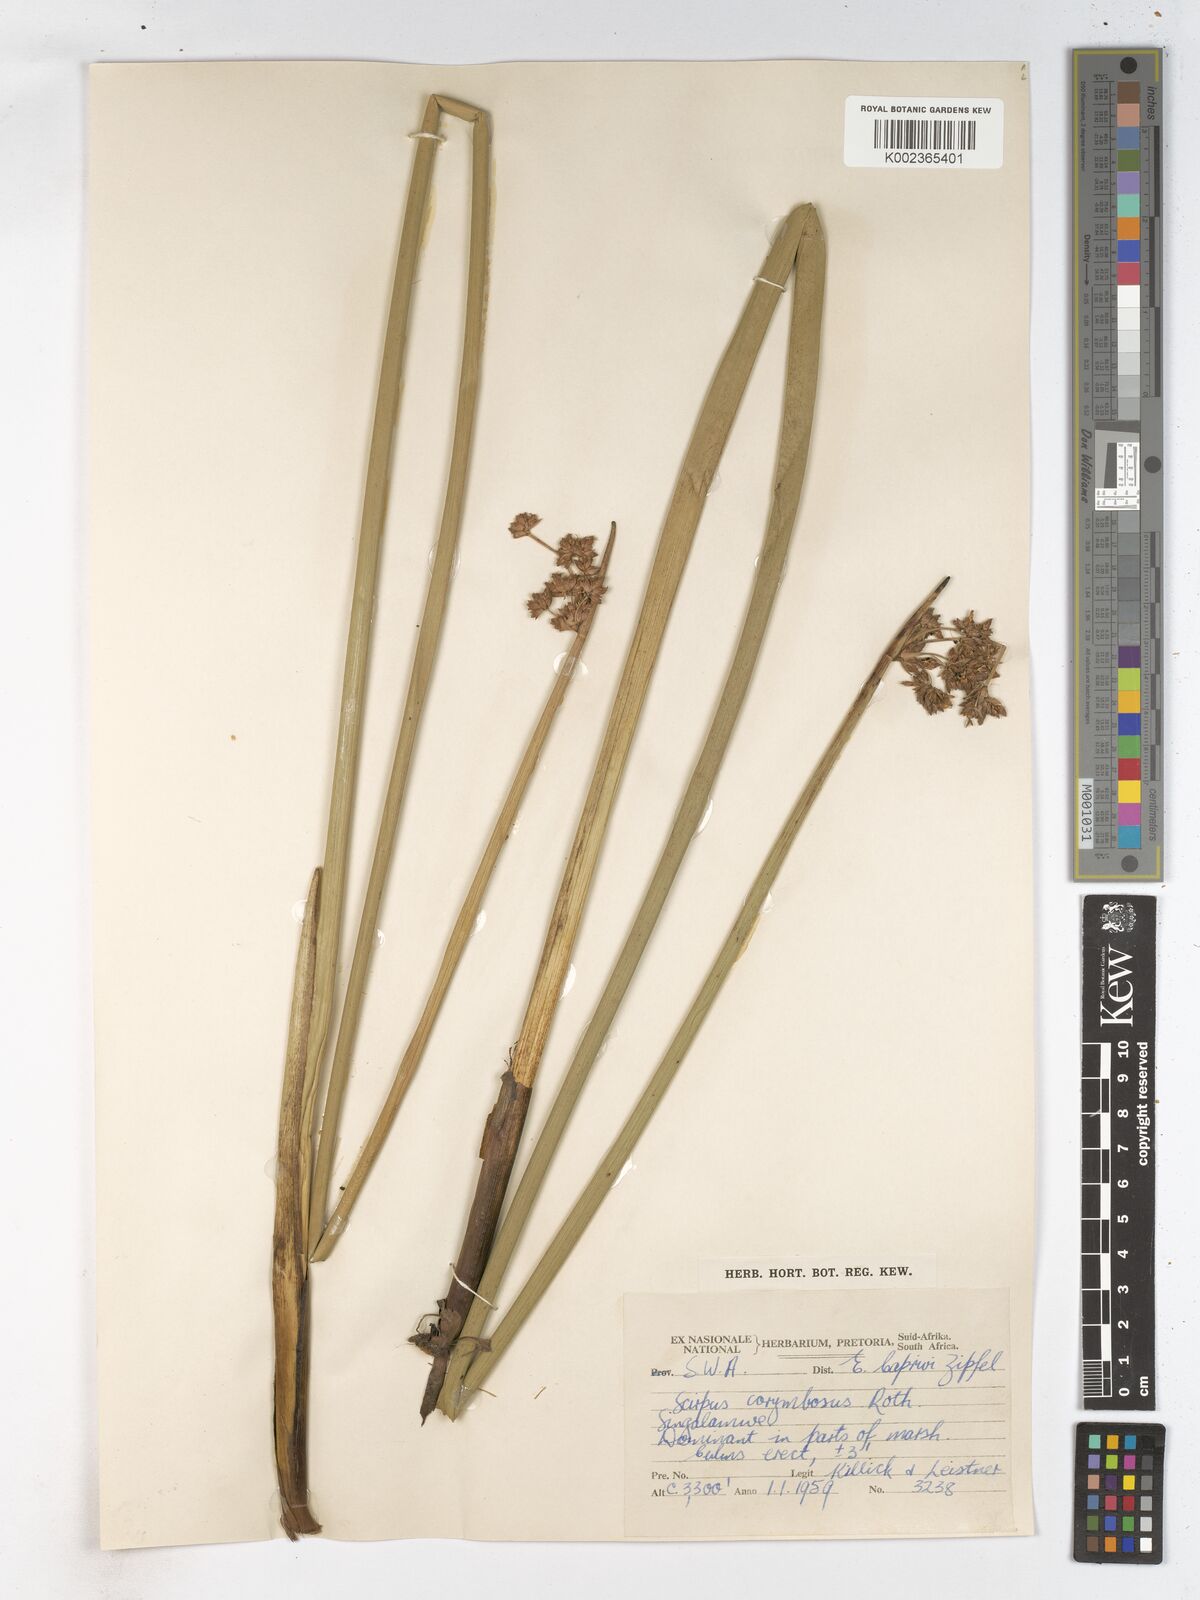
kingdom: Plantae
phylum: Tracheophyta
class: Liliopsida
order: Poales
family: Cyperaceae
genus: Schoenoplectiella
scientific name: Schoenoplectiella brachyceras
